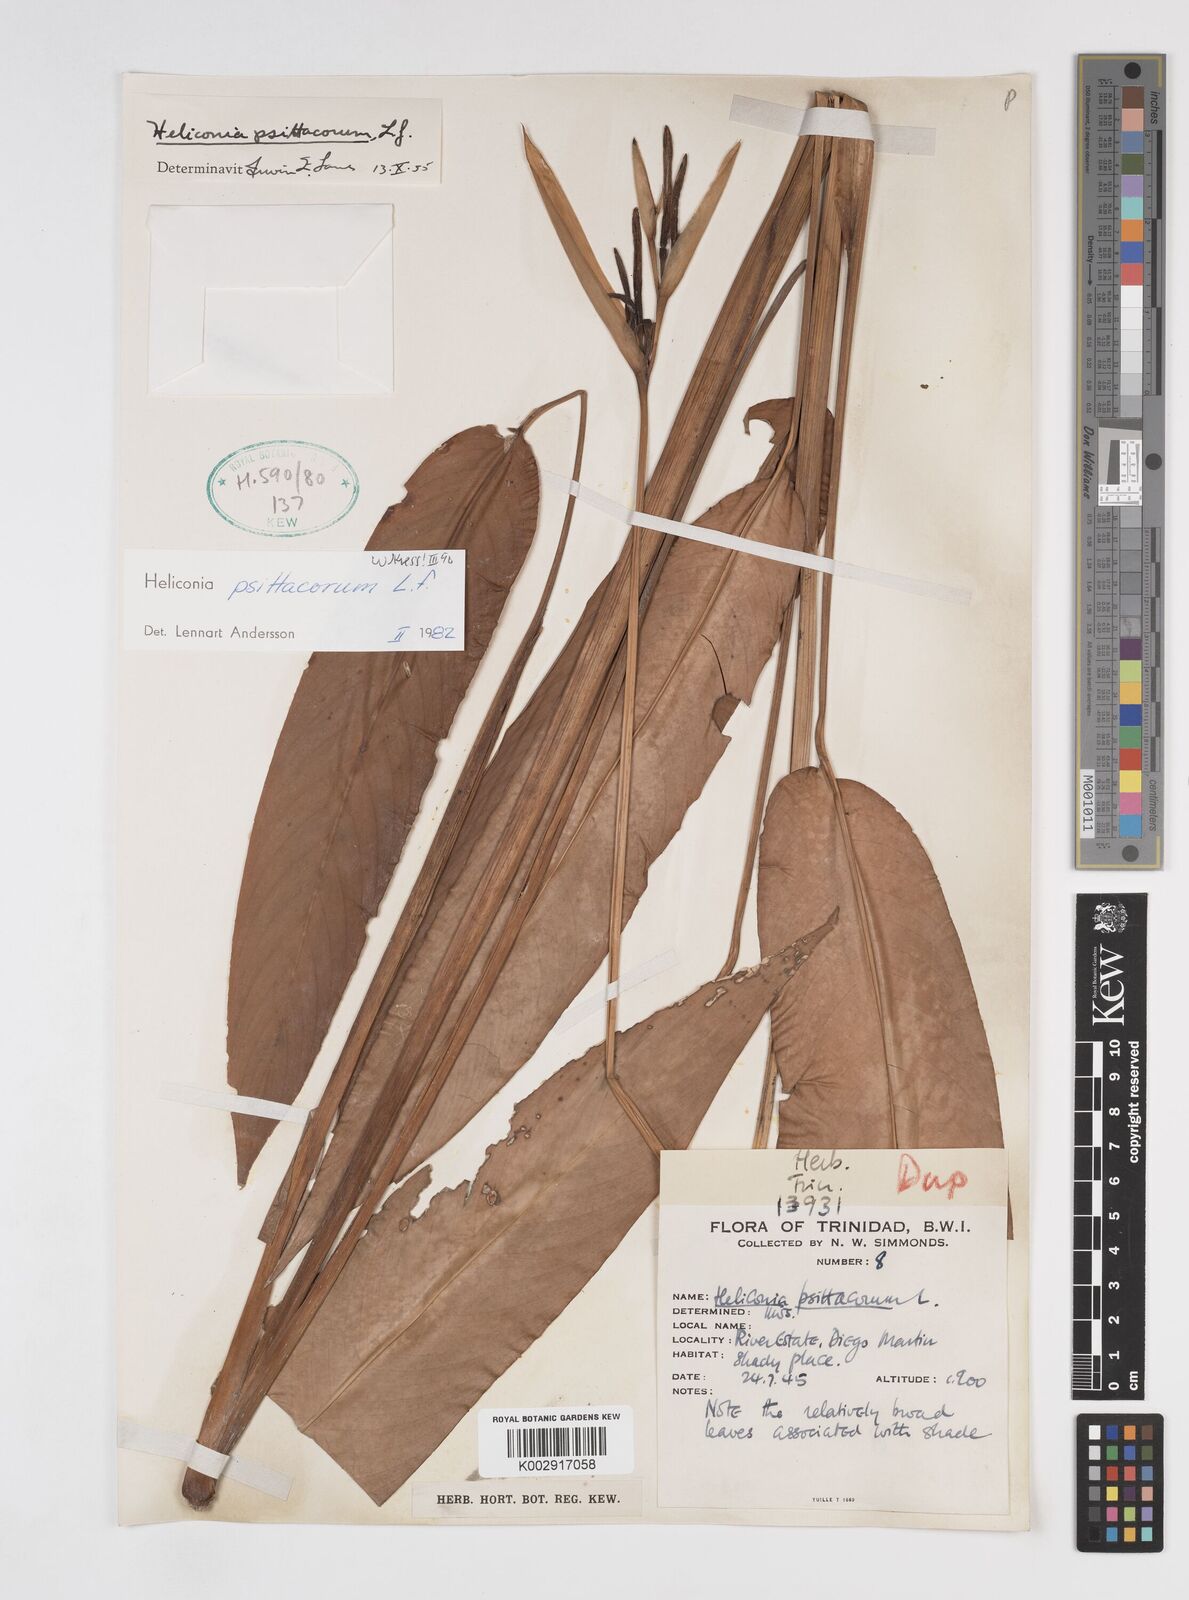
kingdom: Plantae
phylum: Tracheophyta
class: Liliopsida
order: Zingiberales
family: Heliconiaceae
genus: Heliconia
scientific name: Heliconia psittacorum
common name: Parrot's-flower
